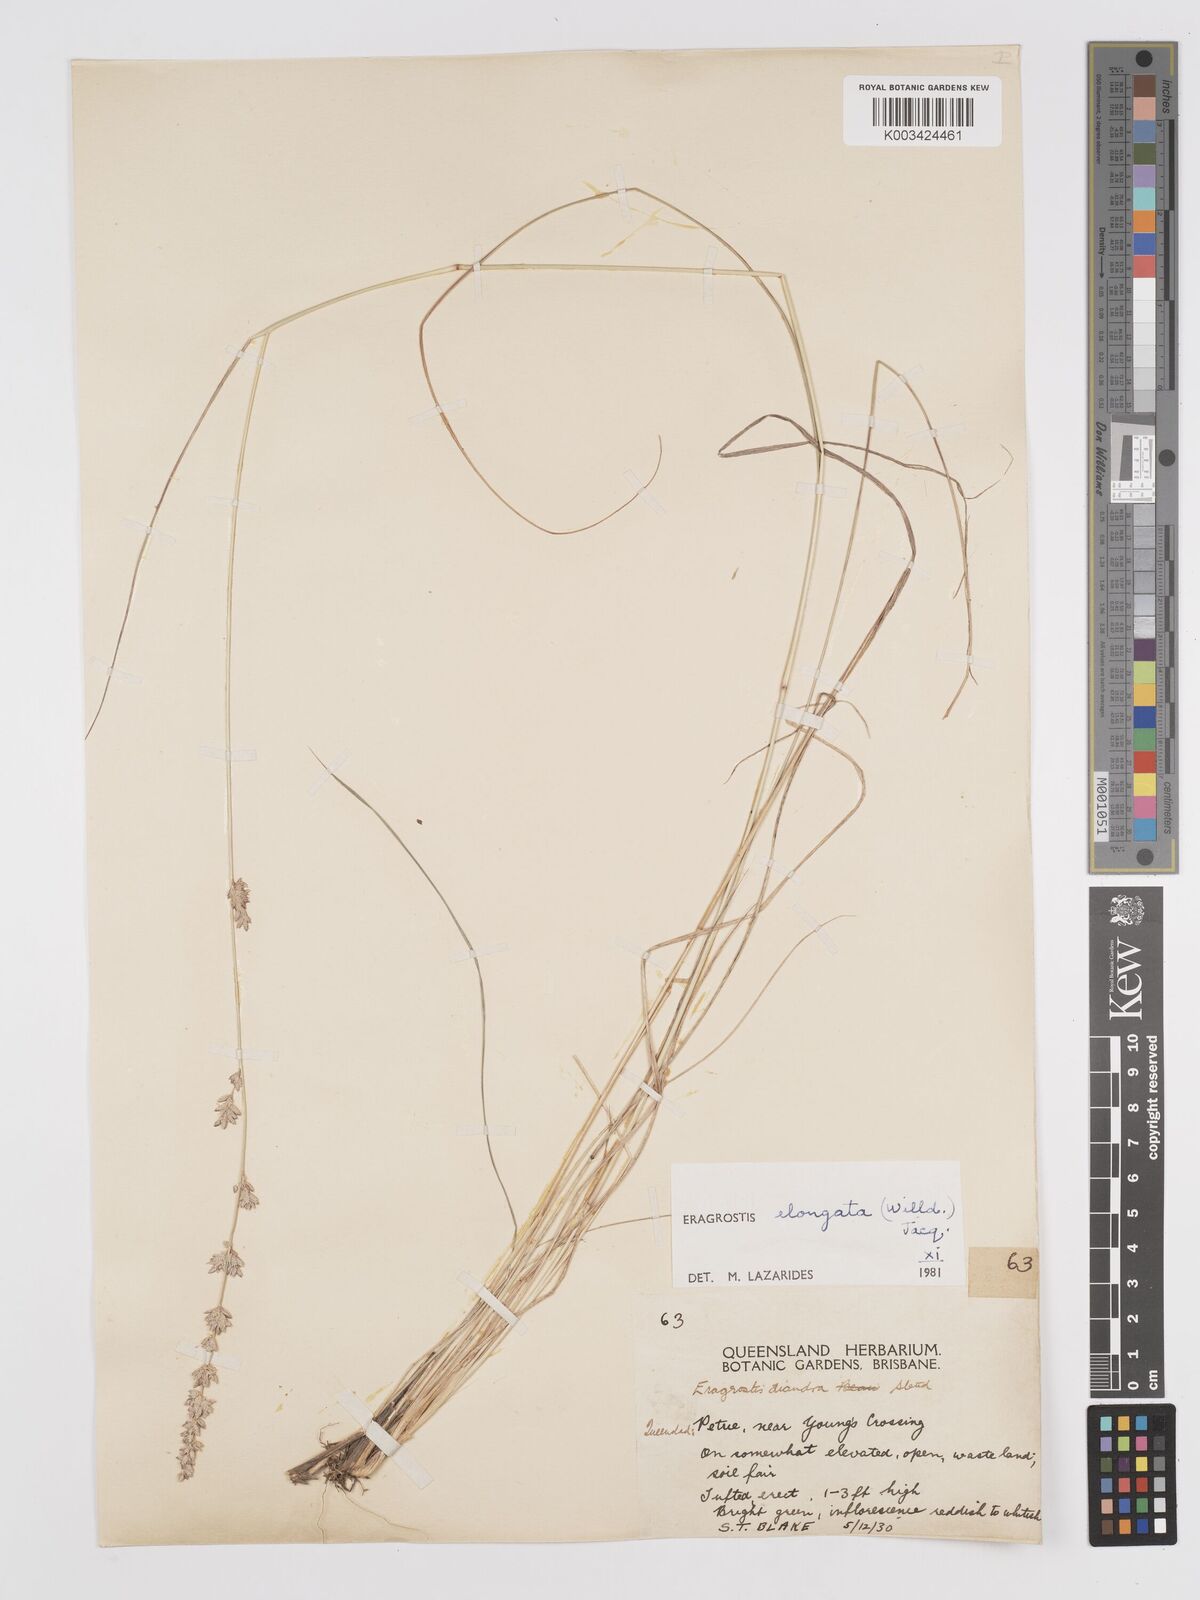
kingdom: Plantae
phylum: Tracheophyta
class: Liliopsida
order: Poales
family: Poaceae
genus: Eragrostis
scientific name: Eragrostis elongata
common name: Long lovegrass
